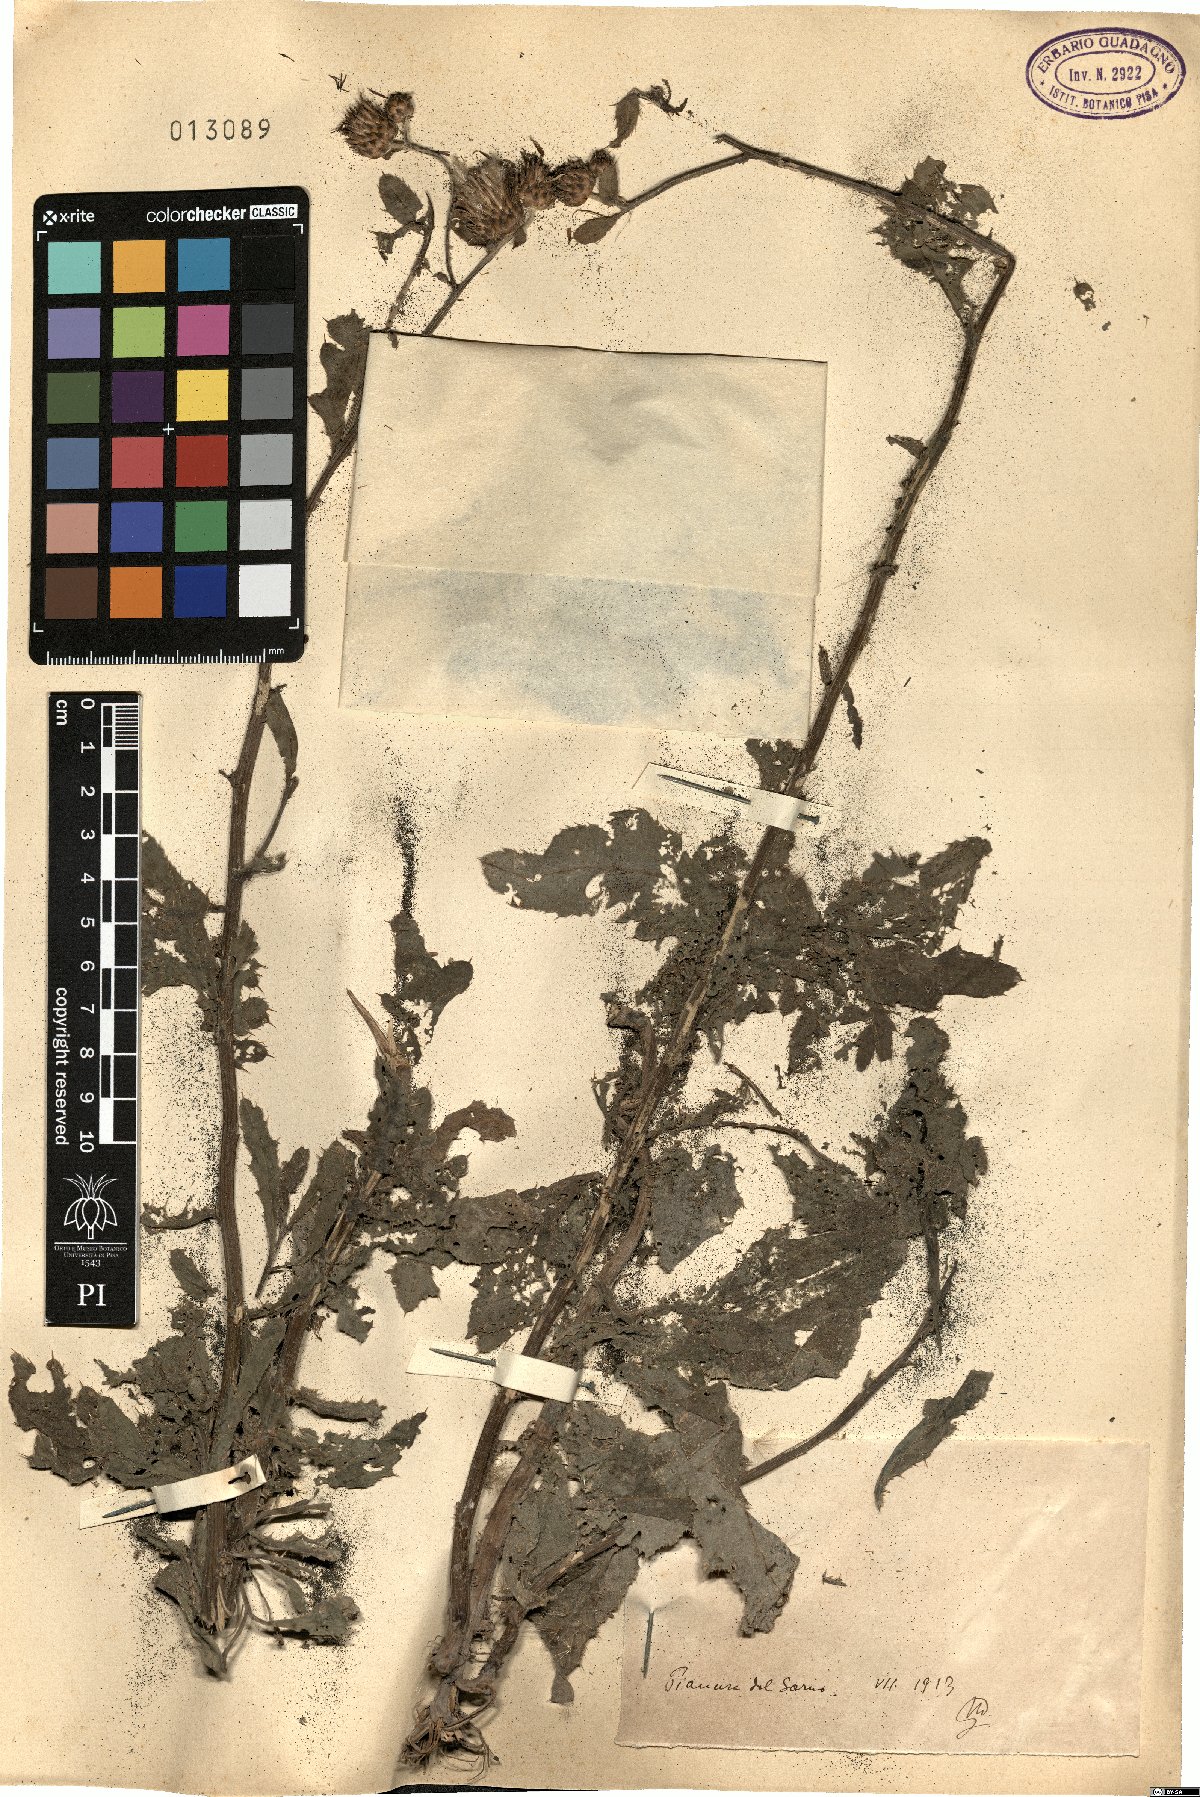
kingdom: Plantae
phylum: Tracheophyta
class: Magnoliopsida
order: Asterales
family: Asteraceae
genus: Cirsium
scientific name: Cirsium
